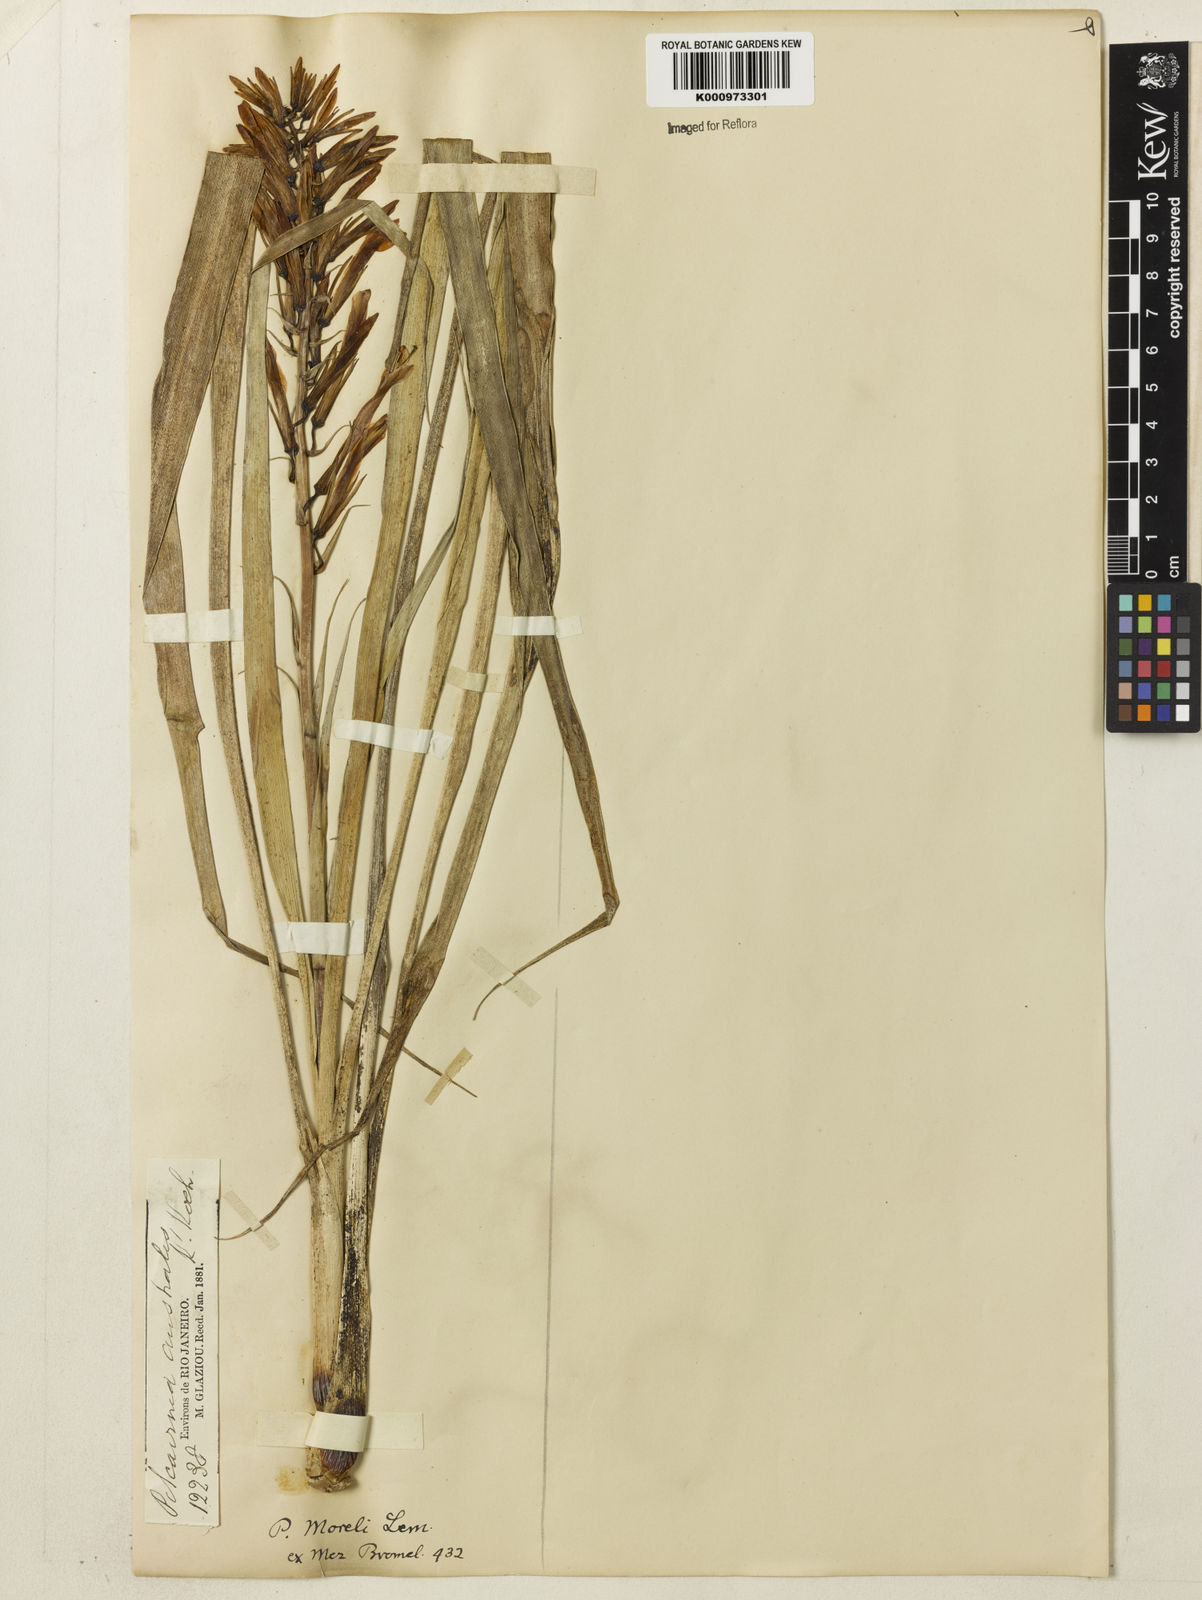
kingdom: Plantae
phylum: Tracheophyta
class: Liliopsida
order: Poales
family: Bromeliaceae
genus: Pitcairnia
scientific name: Pitcairnia flammea
